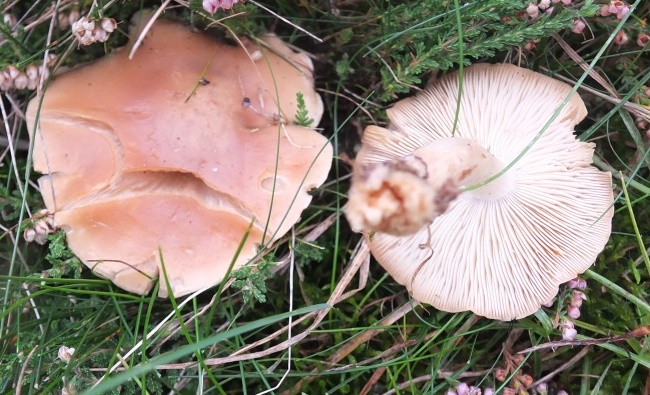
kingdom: Fungi
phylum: Basidiomycota
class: Agaricomycetes
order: Agaricales
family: Lyophyllaceae
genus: Calocybe
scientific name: Calocybe carnea
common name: rosa fagerhat
